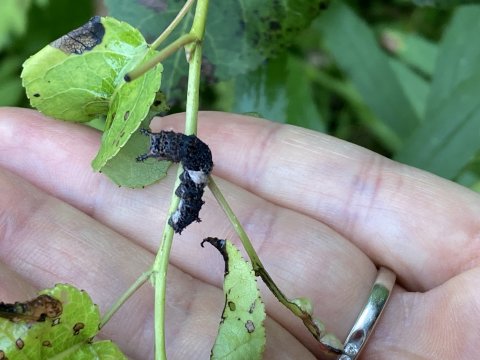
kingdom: Animalia
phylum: Arthropoda
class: Insecta
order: Lepidoptera
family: Nymphalidae
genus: Limenitis
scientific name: Limenitis archippus
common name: Viceroy
